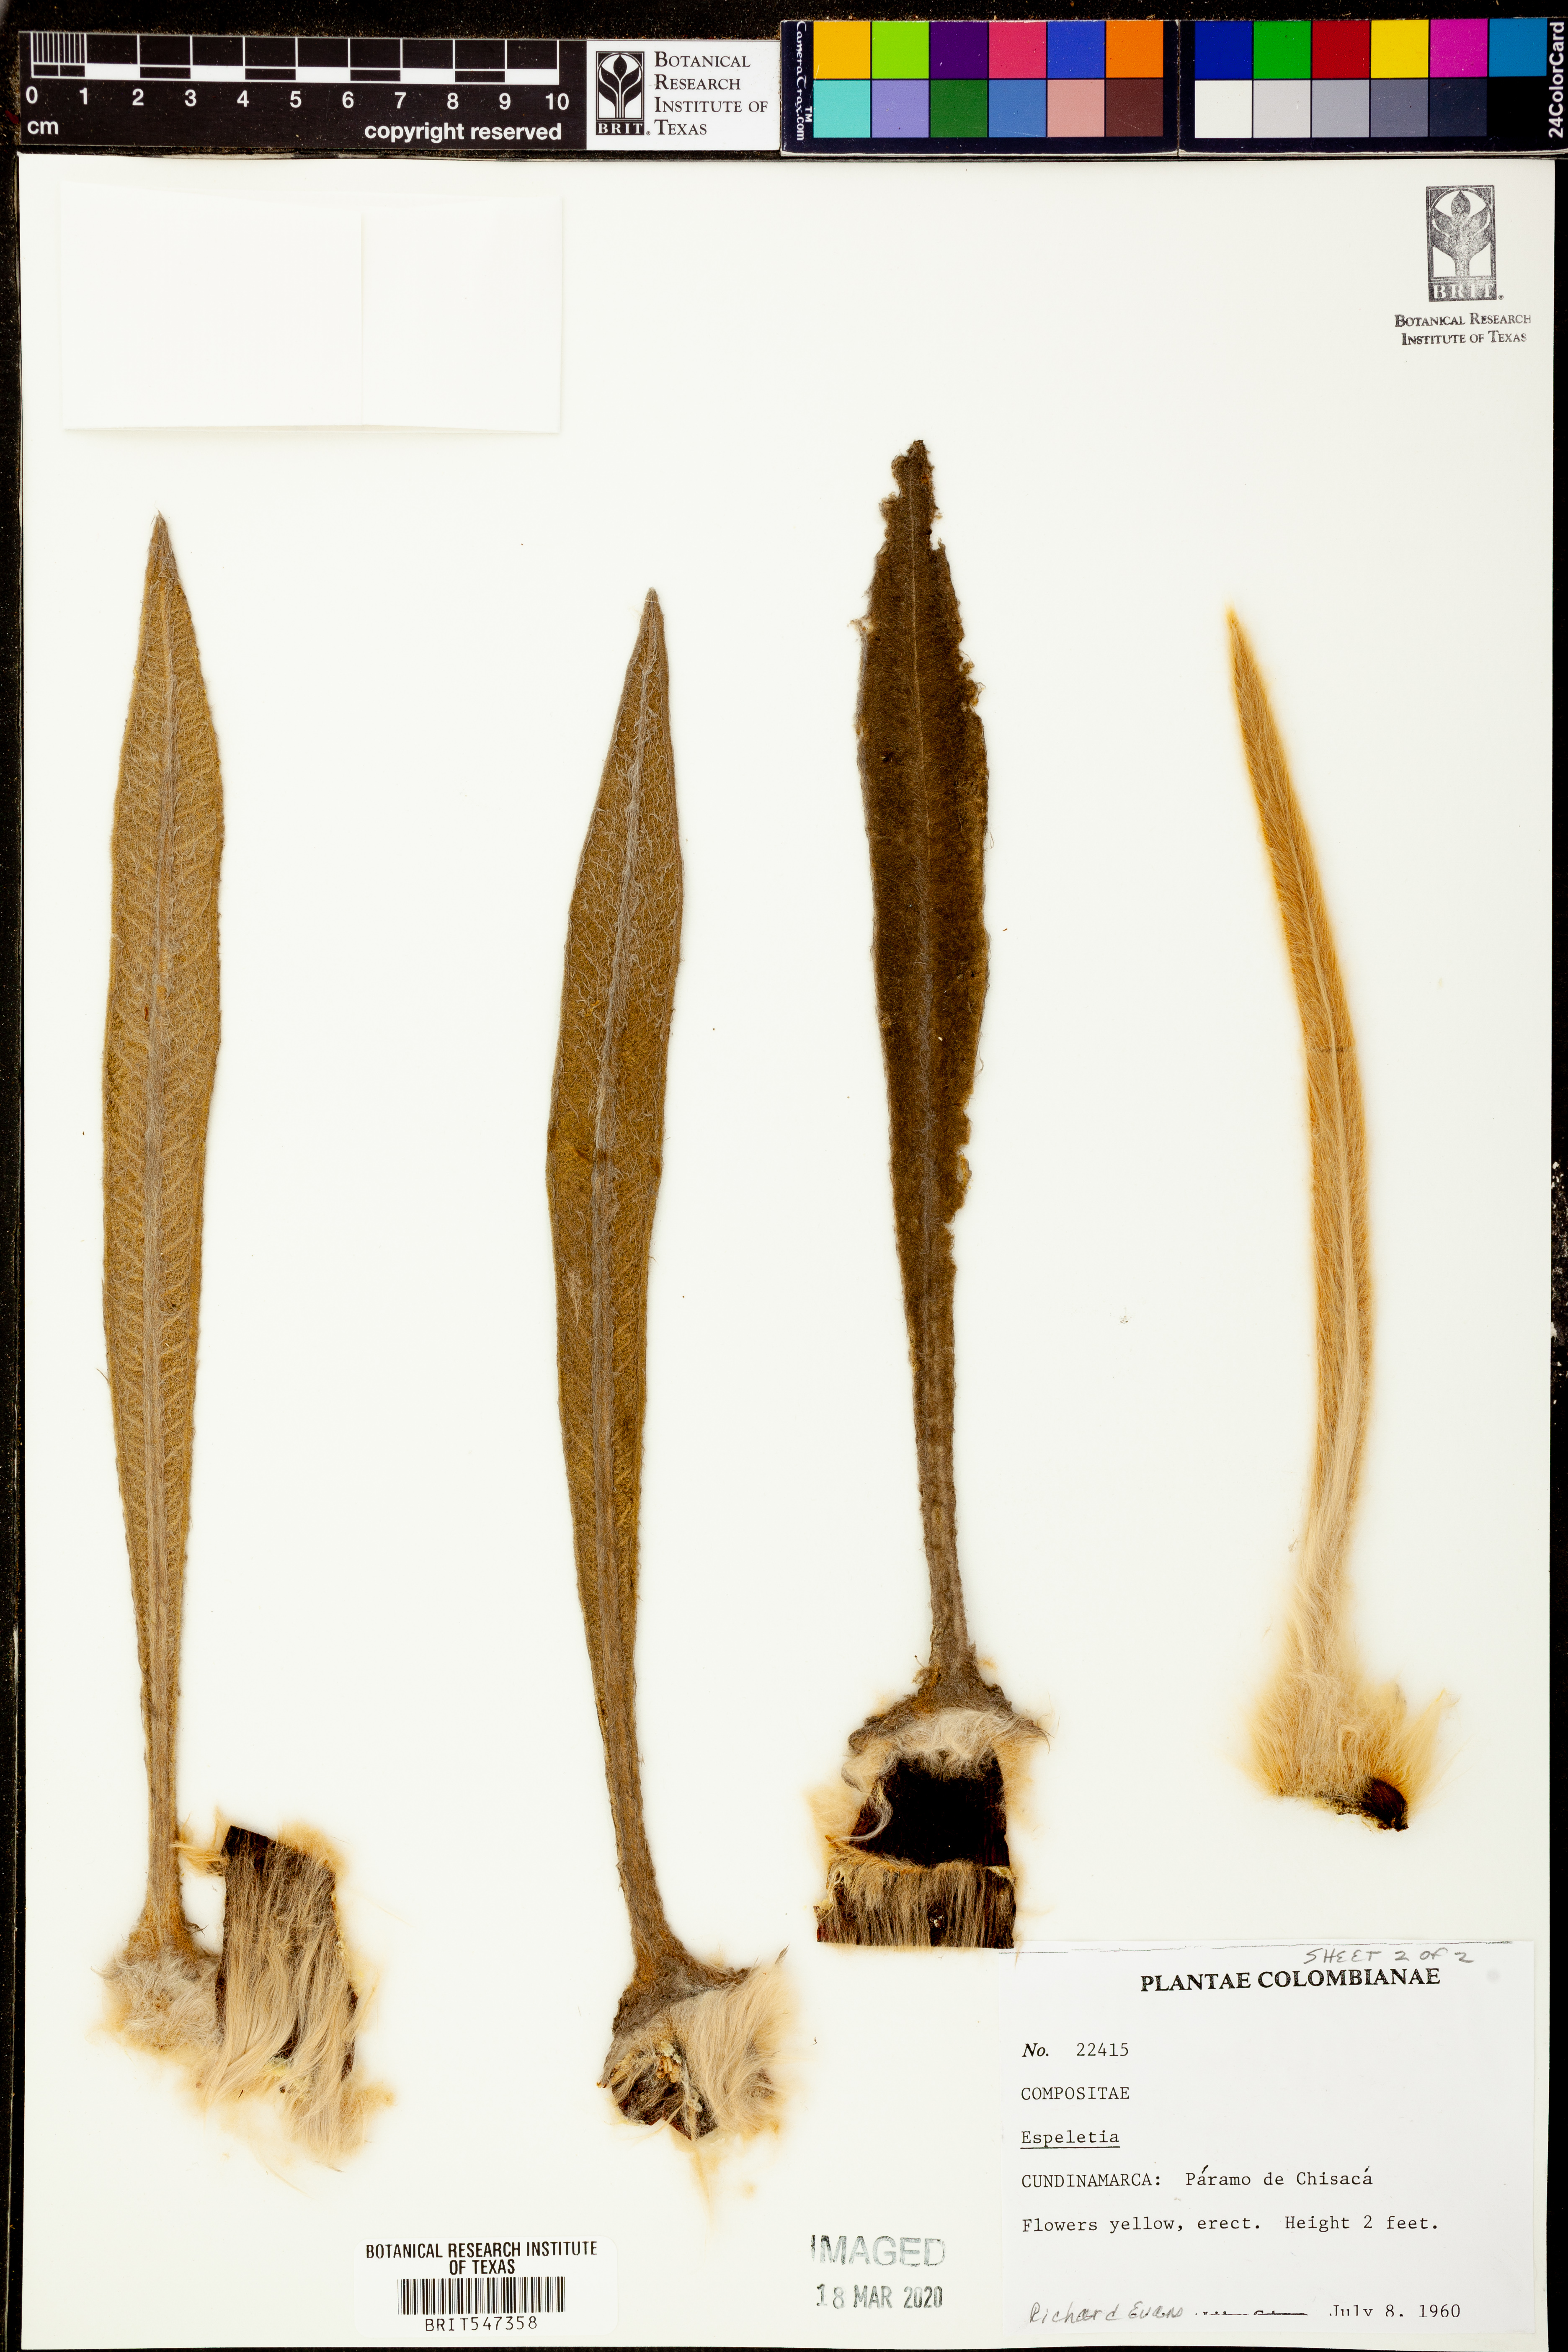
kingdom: Plantae
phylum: Tracheophyta
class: Magnoliopsida
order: Asterales
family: Asteraceae
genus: Espeletia
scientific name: Espeletia
